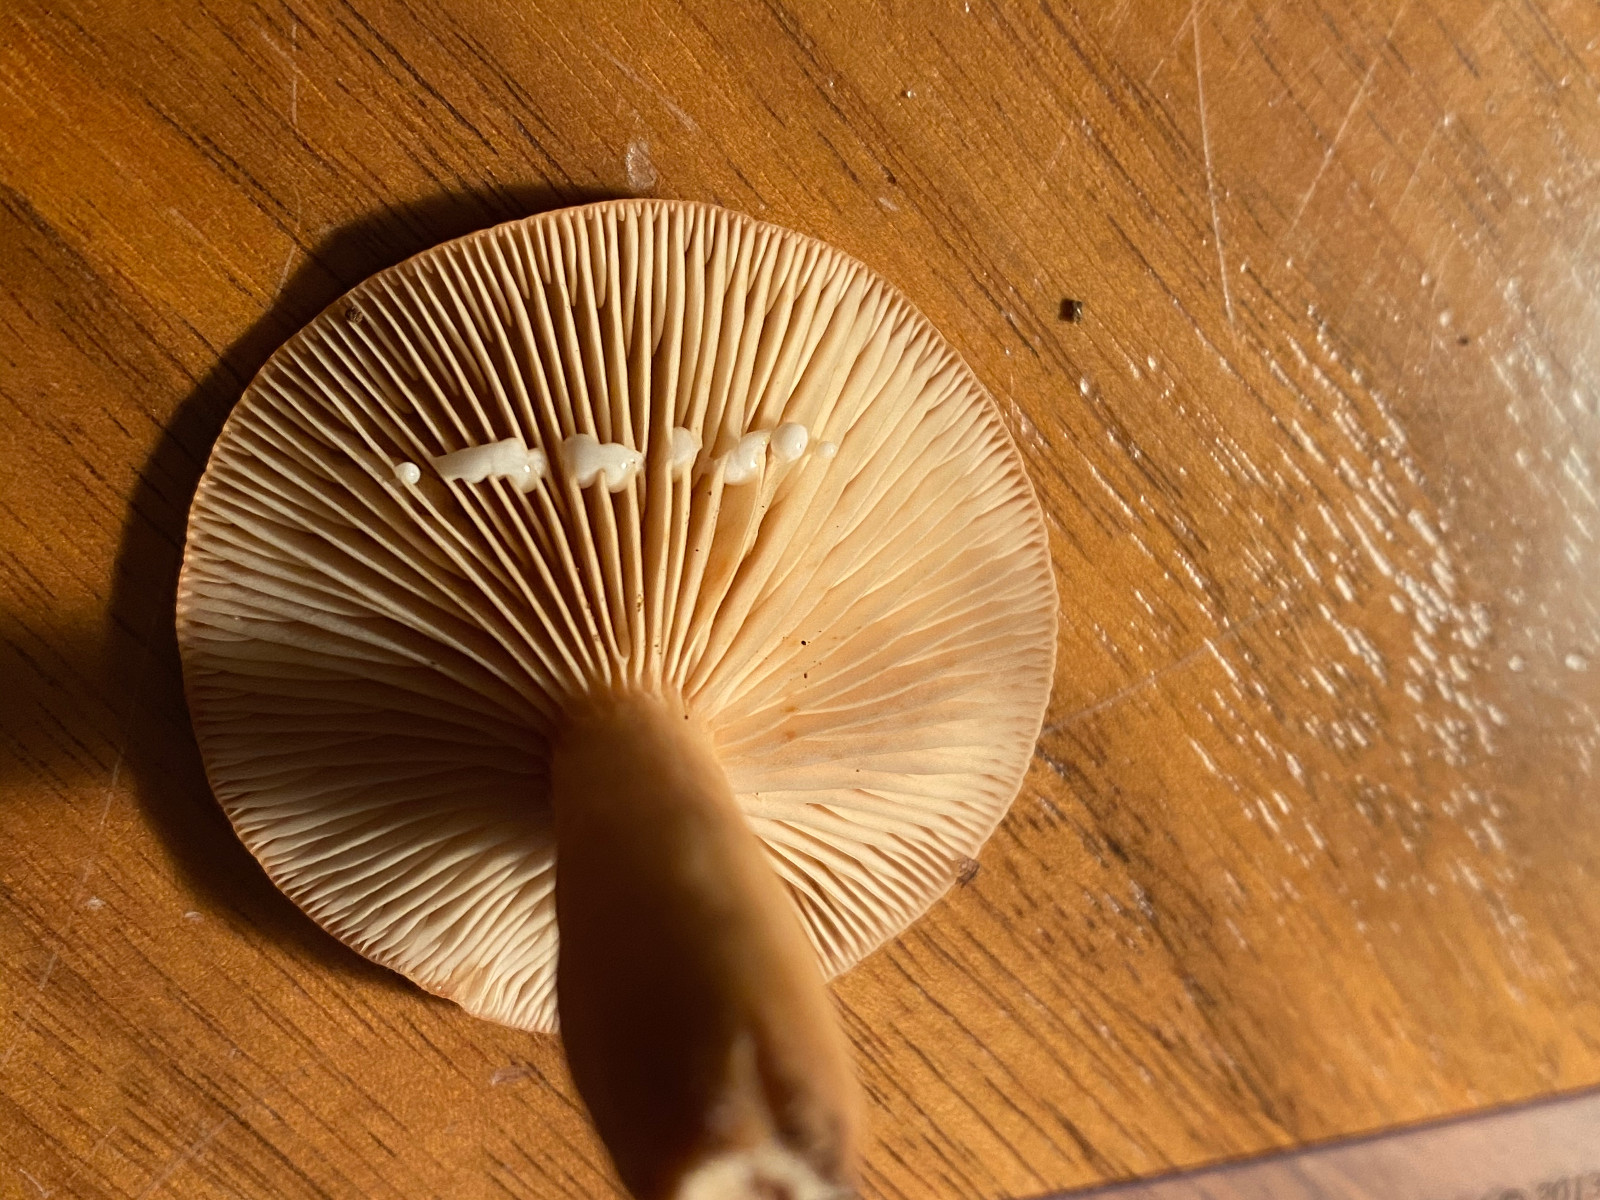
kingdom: Fungi
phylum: Basidiomycota
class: Agaricomycetes
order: Russulales
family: Russulaceae
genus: Lactarius
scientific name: Lactarius subdulcis
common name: sødlig mælkehat
